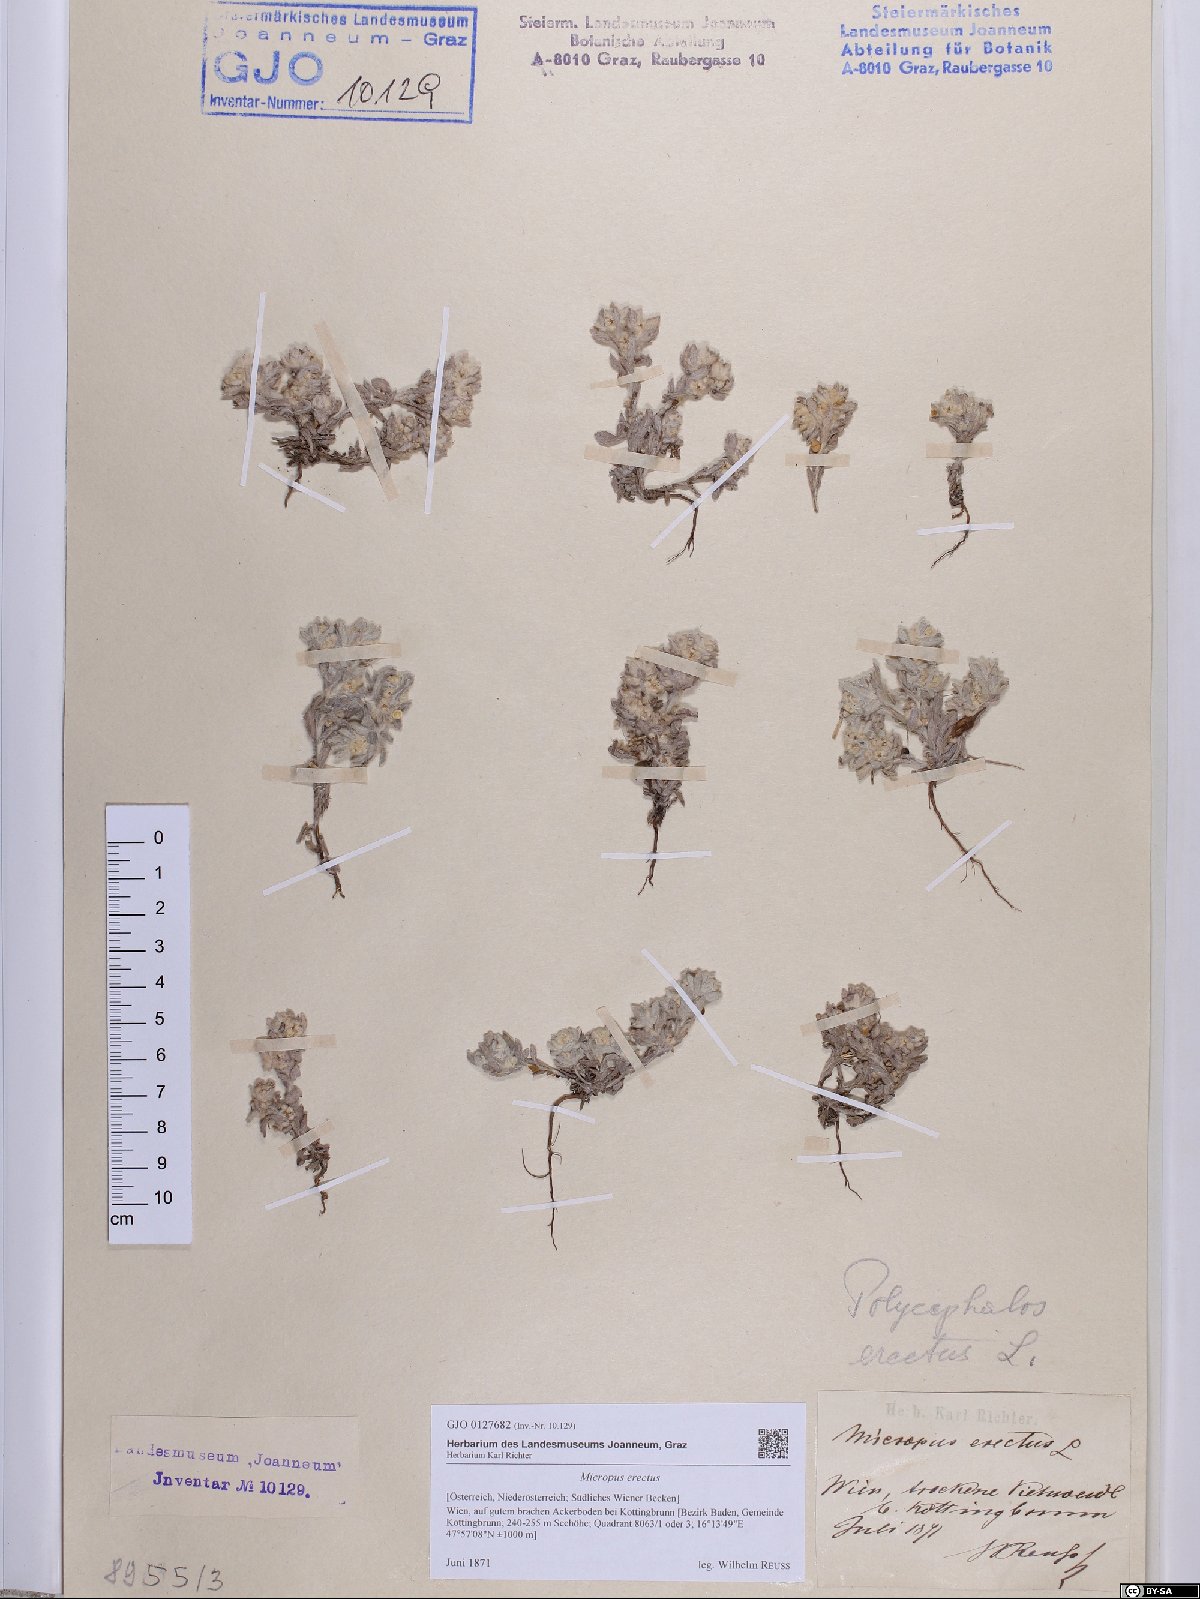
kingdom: Plantae
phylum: Tracheophyta
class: Magnoliopsida
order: Asterales
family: Asteraceae
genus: Bombycilaena
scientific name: Bombycilaena erecta
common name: Micropus
